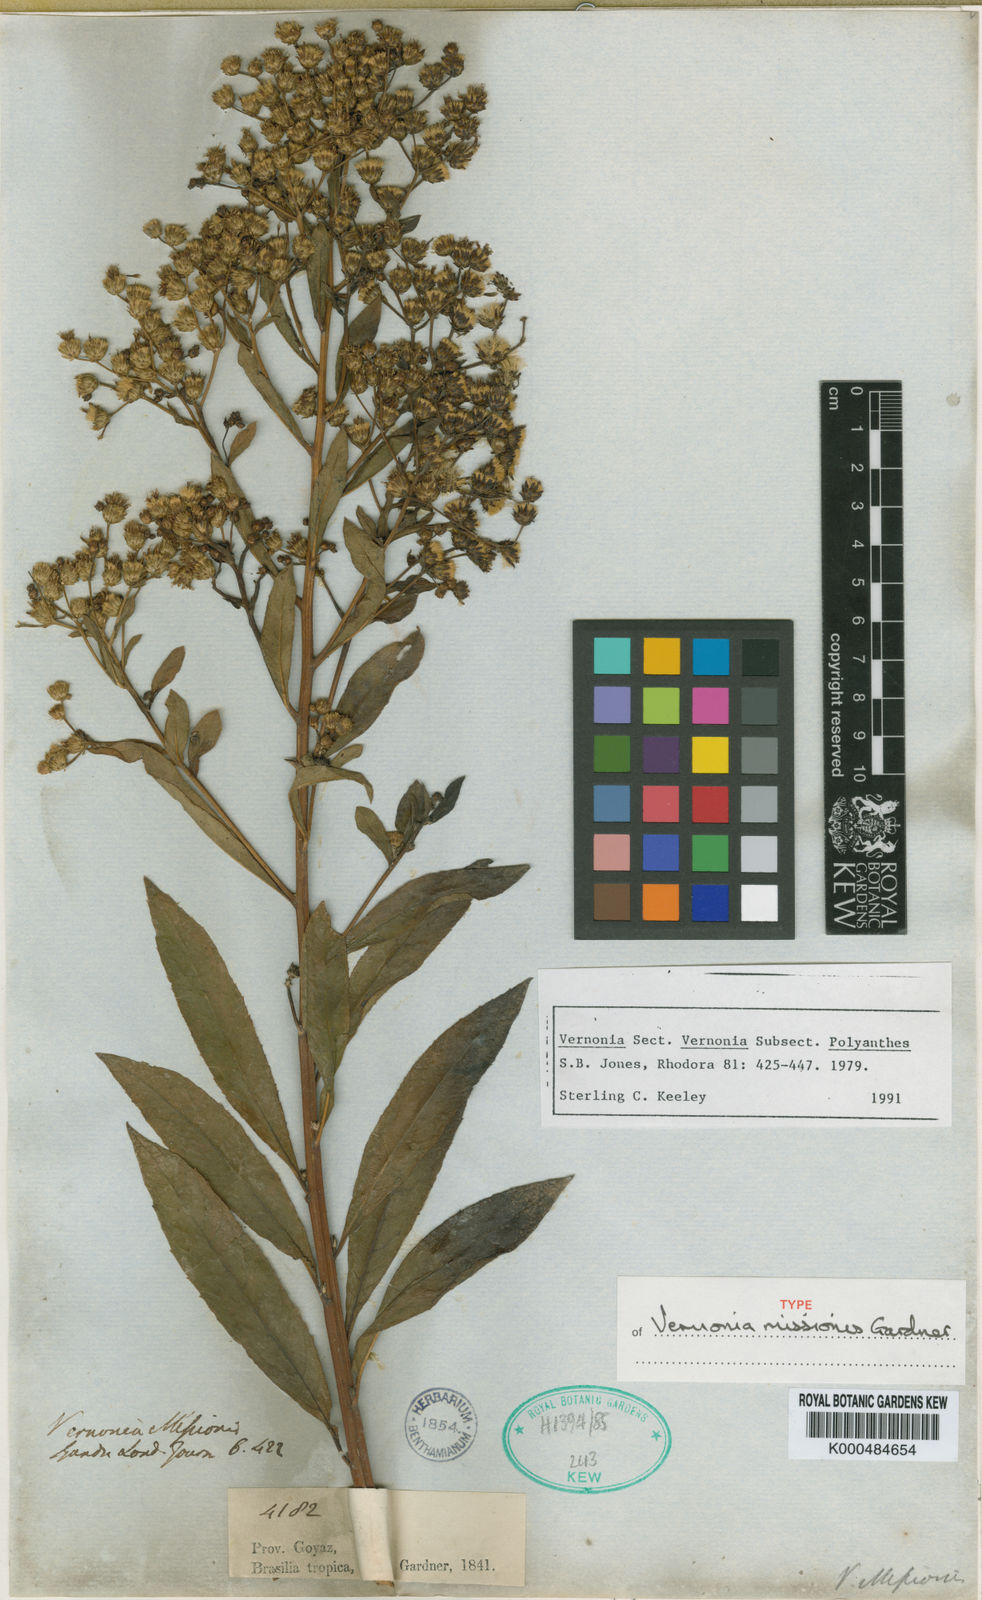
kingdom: Plantae
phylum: Tracheophyta
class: Magnoliopsida
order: Asterales
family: Asteraceae
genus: Vernonanthura
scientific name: Vernonanthura cymosa
